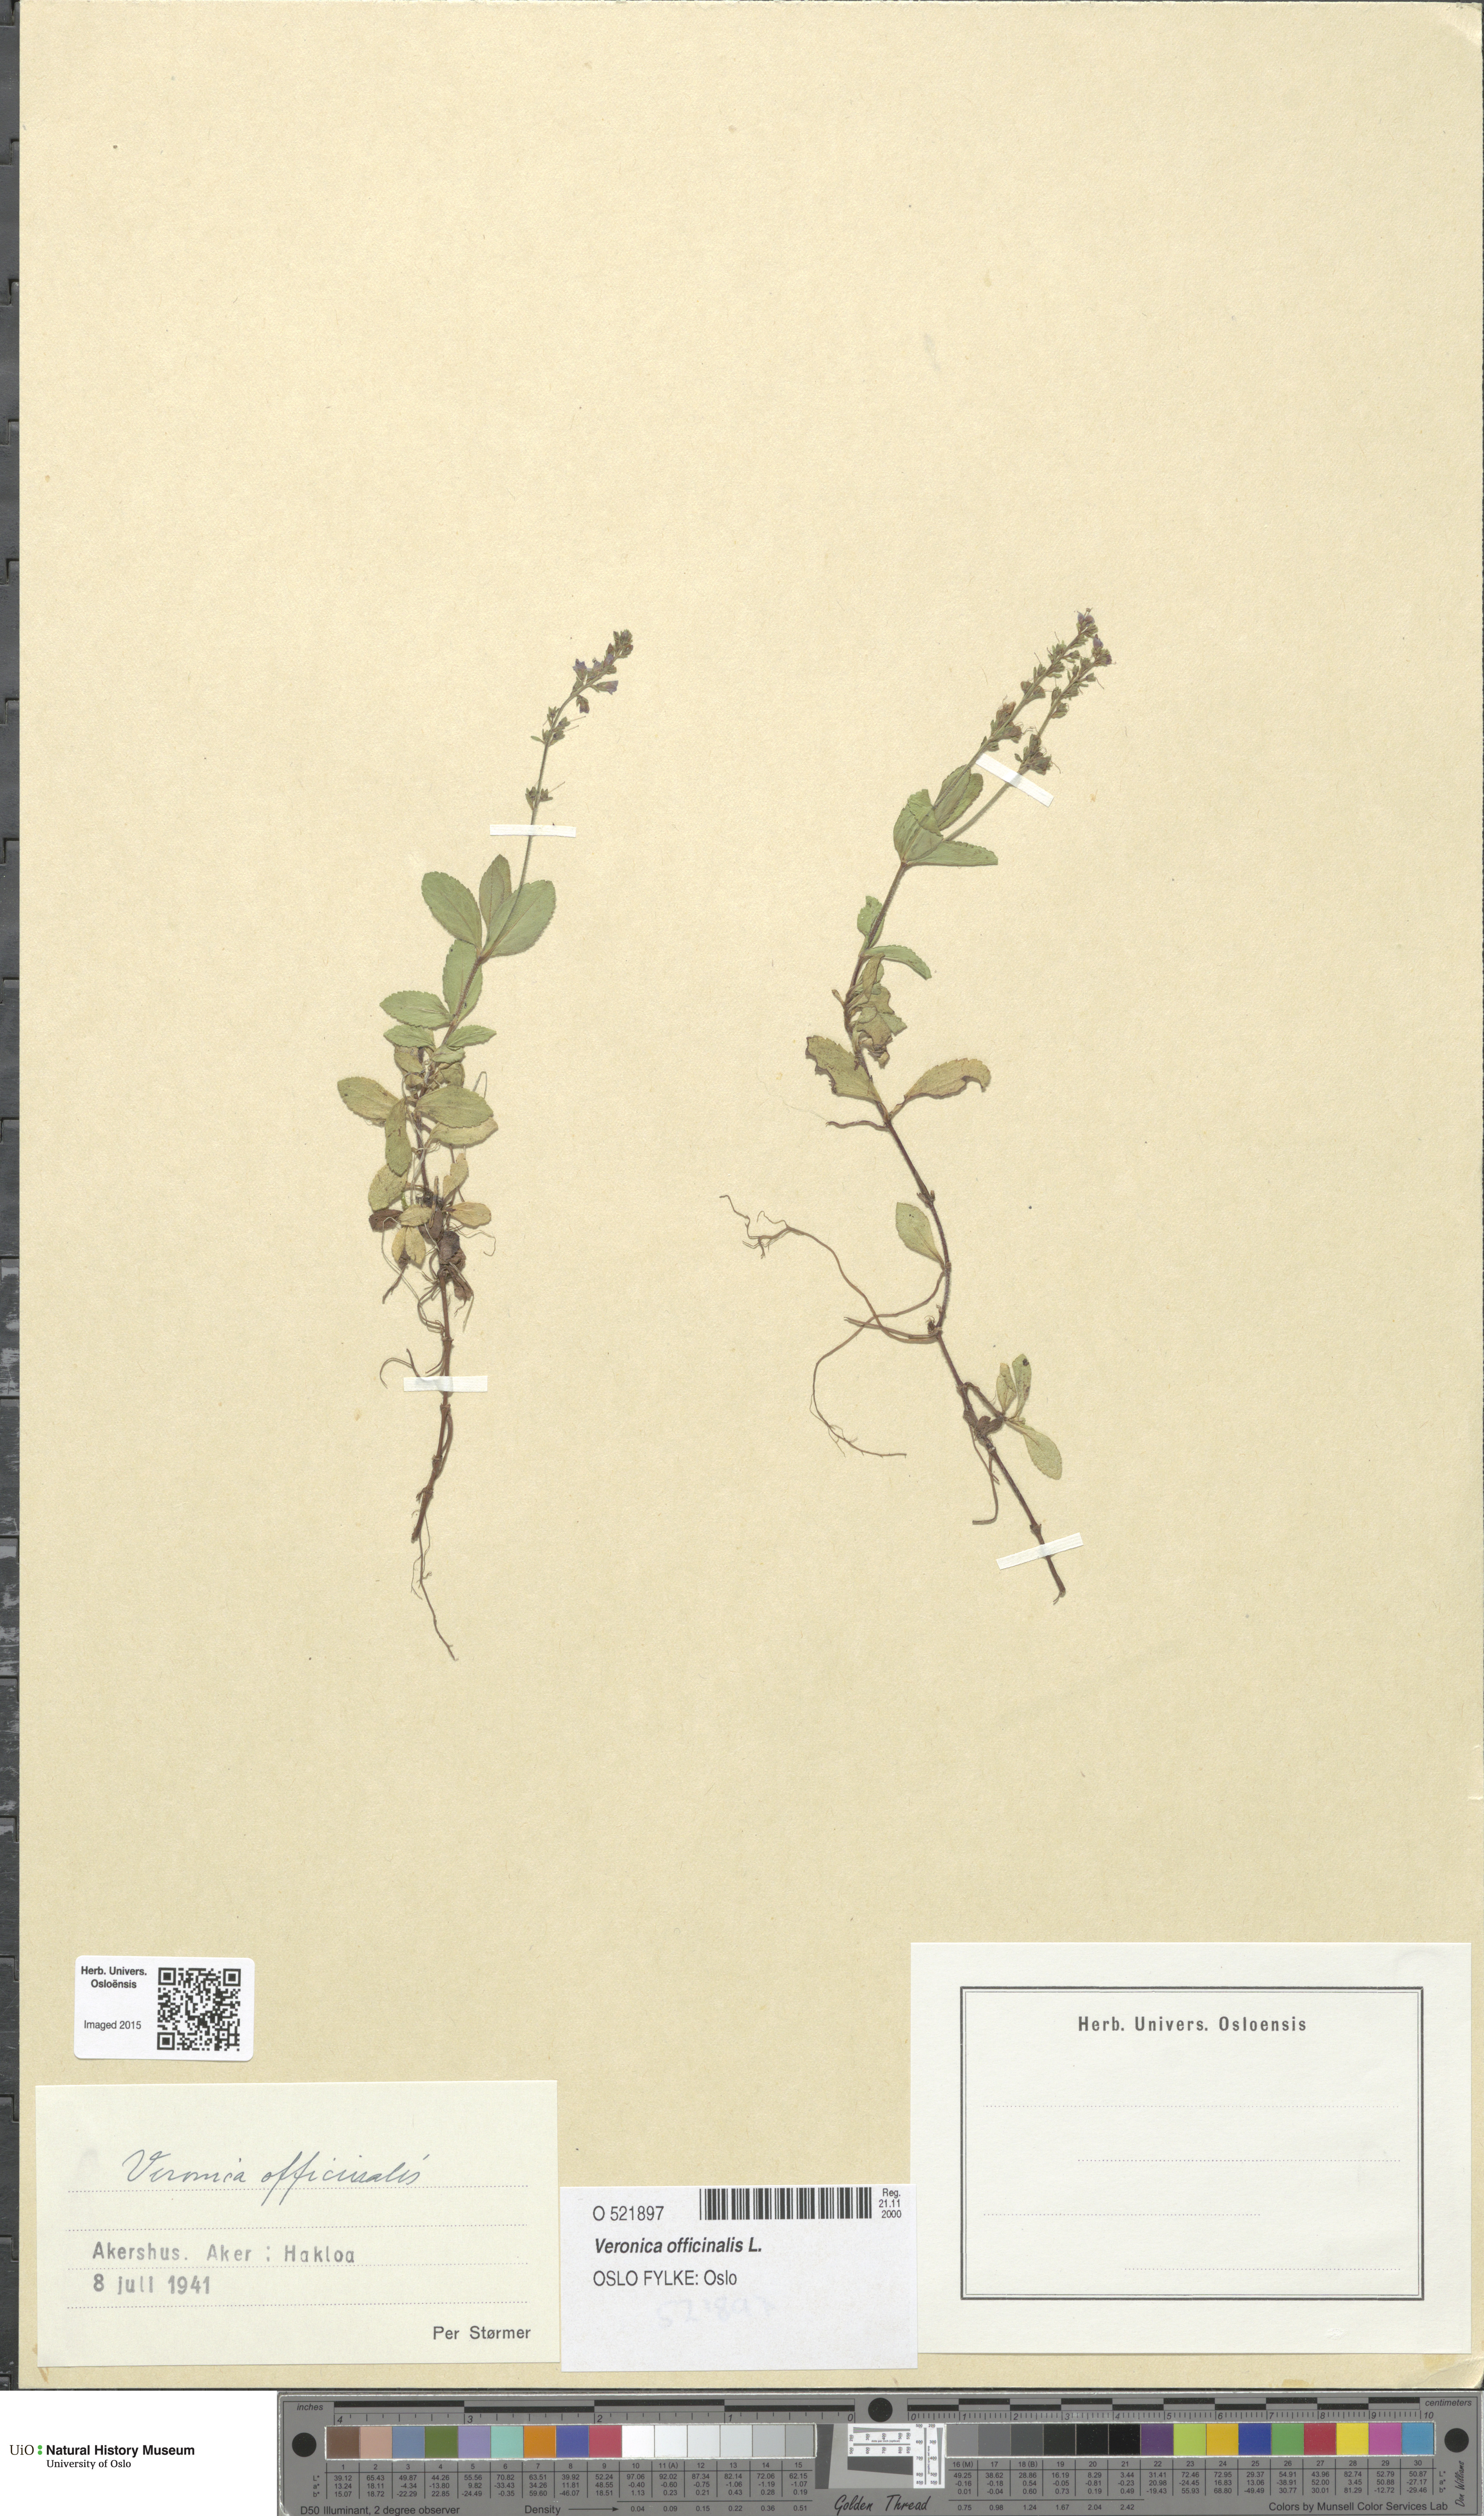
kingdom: Plantae
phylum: Tracheophyta
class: Magnoliopsida
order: Lamiales
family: Plantaginaceae
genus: Veronica
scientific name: Veronica officinalis
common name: Common speedwell
